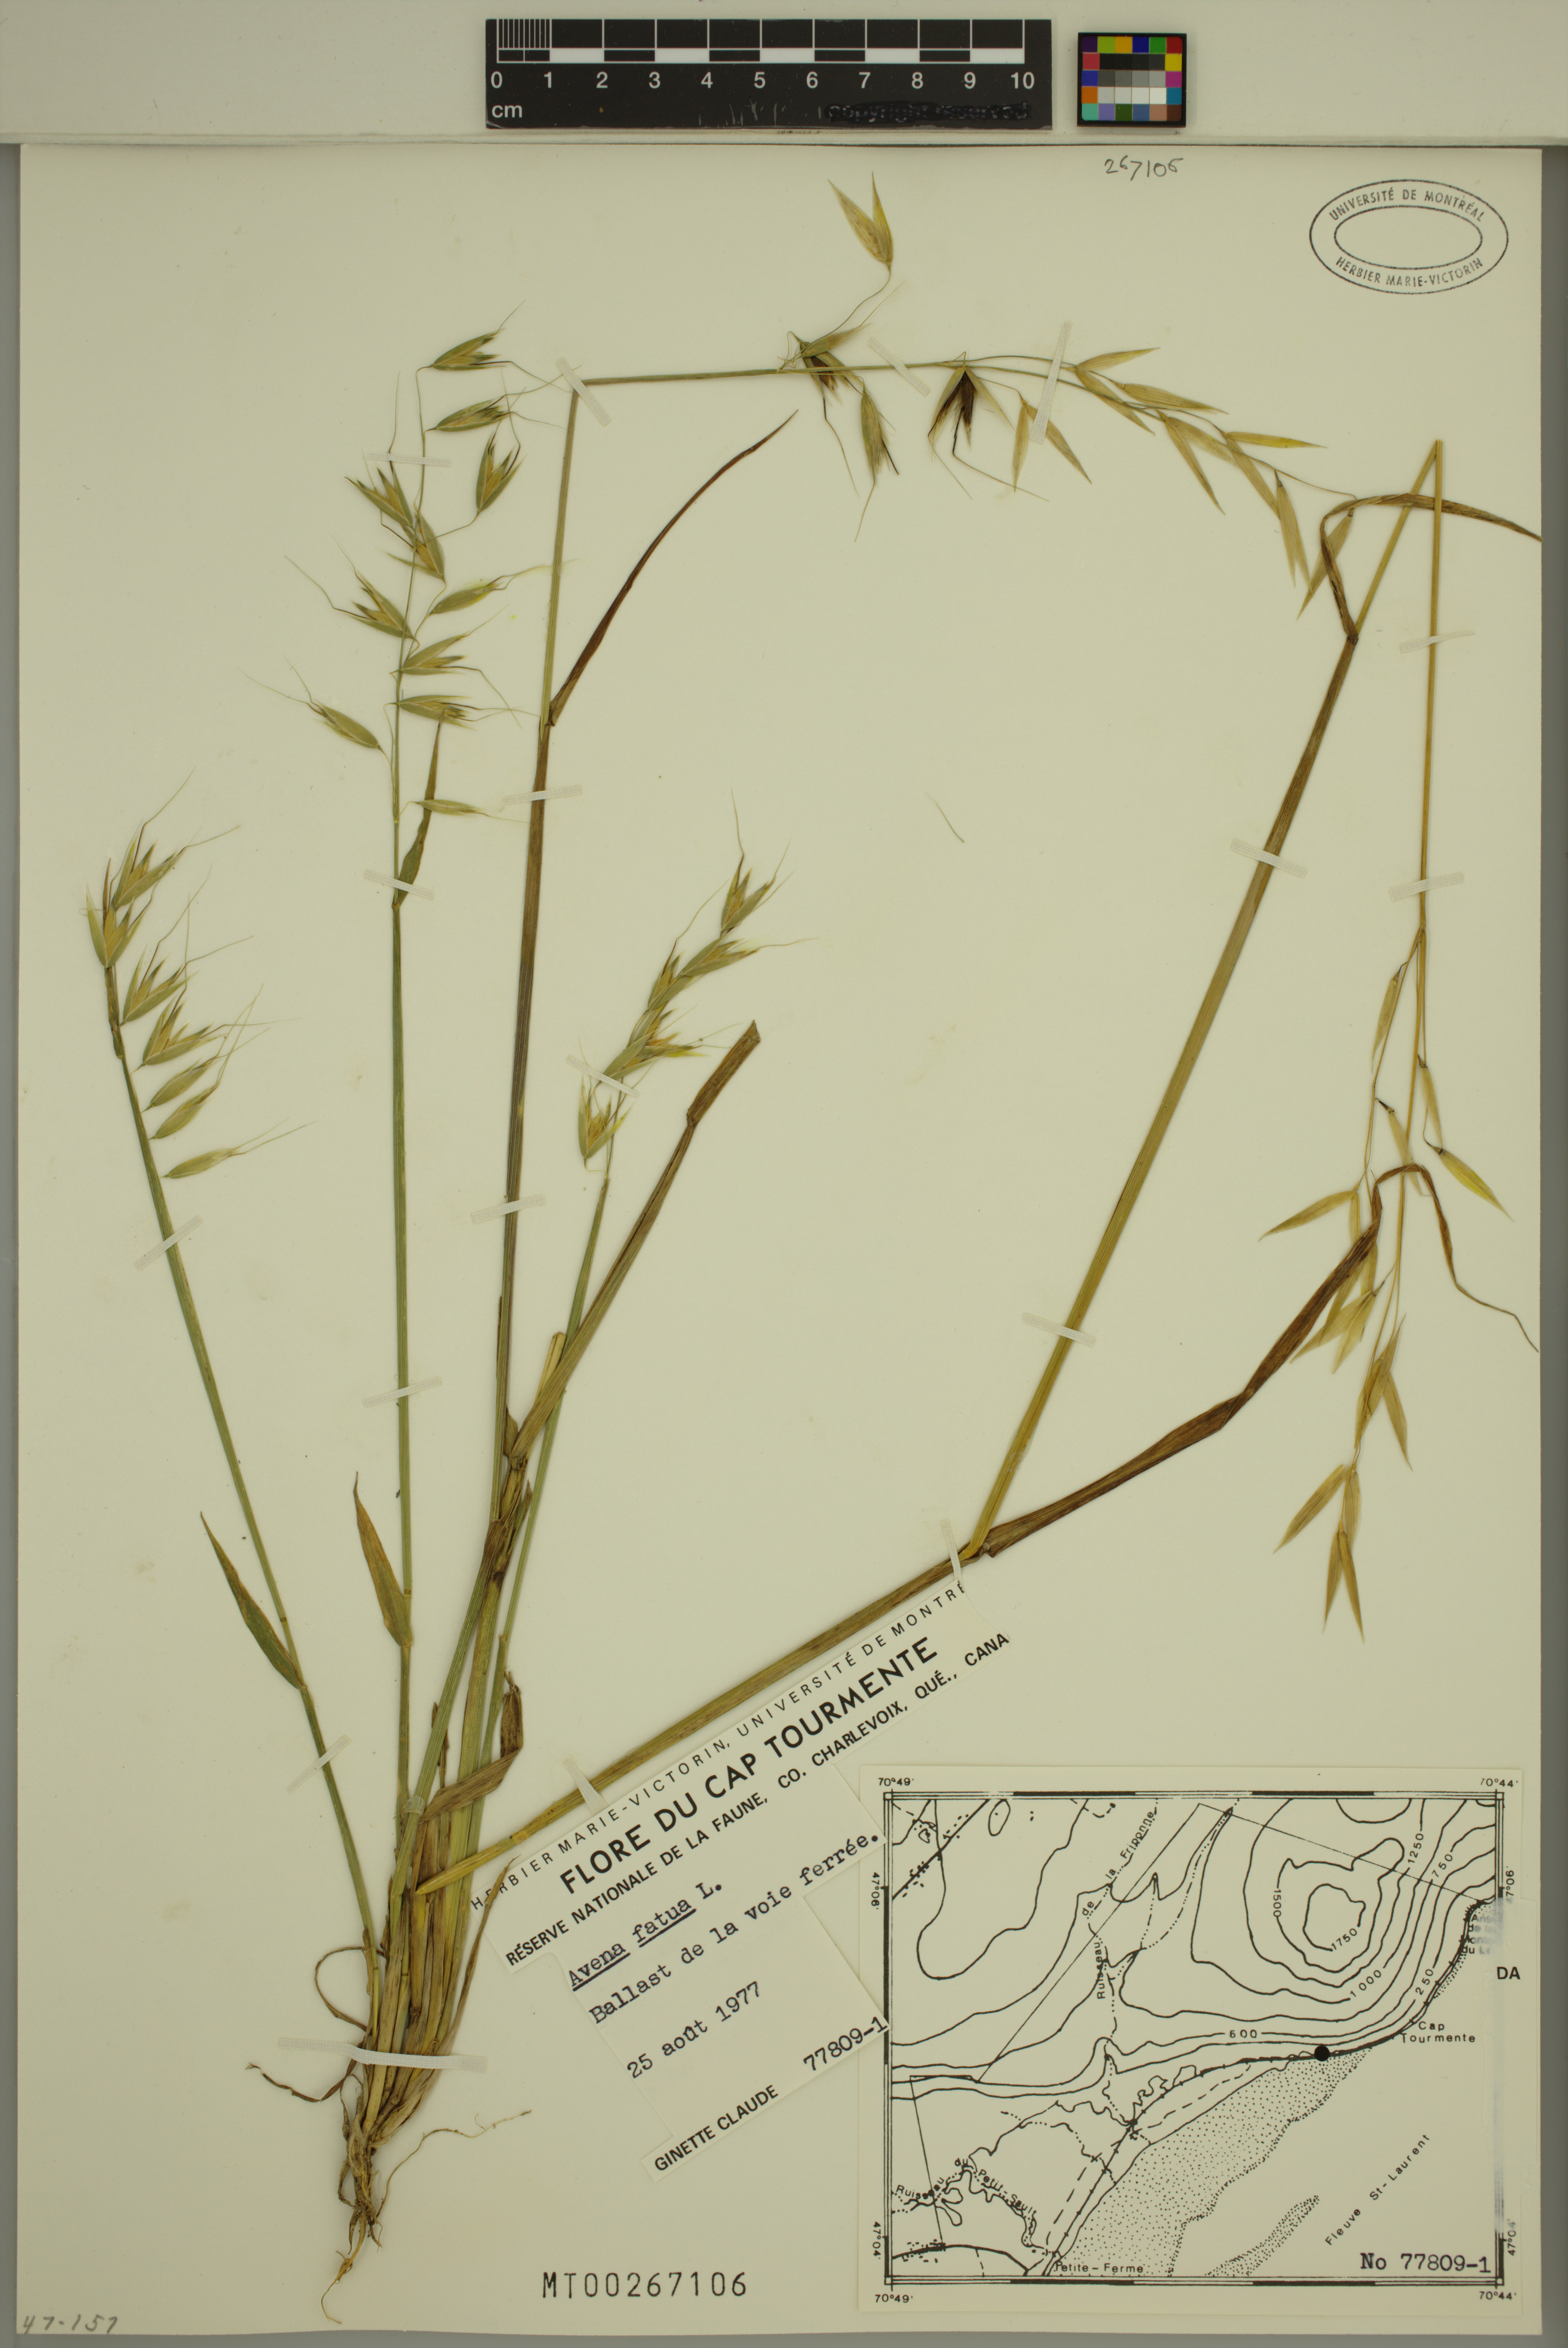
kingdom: Plantae
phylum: Tracheophyta
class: Liliopsida
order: Poales
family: Poaceae
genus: Avena
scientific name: Avena fatua
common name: Wild oat
